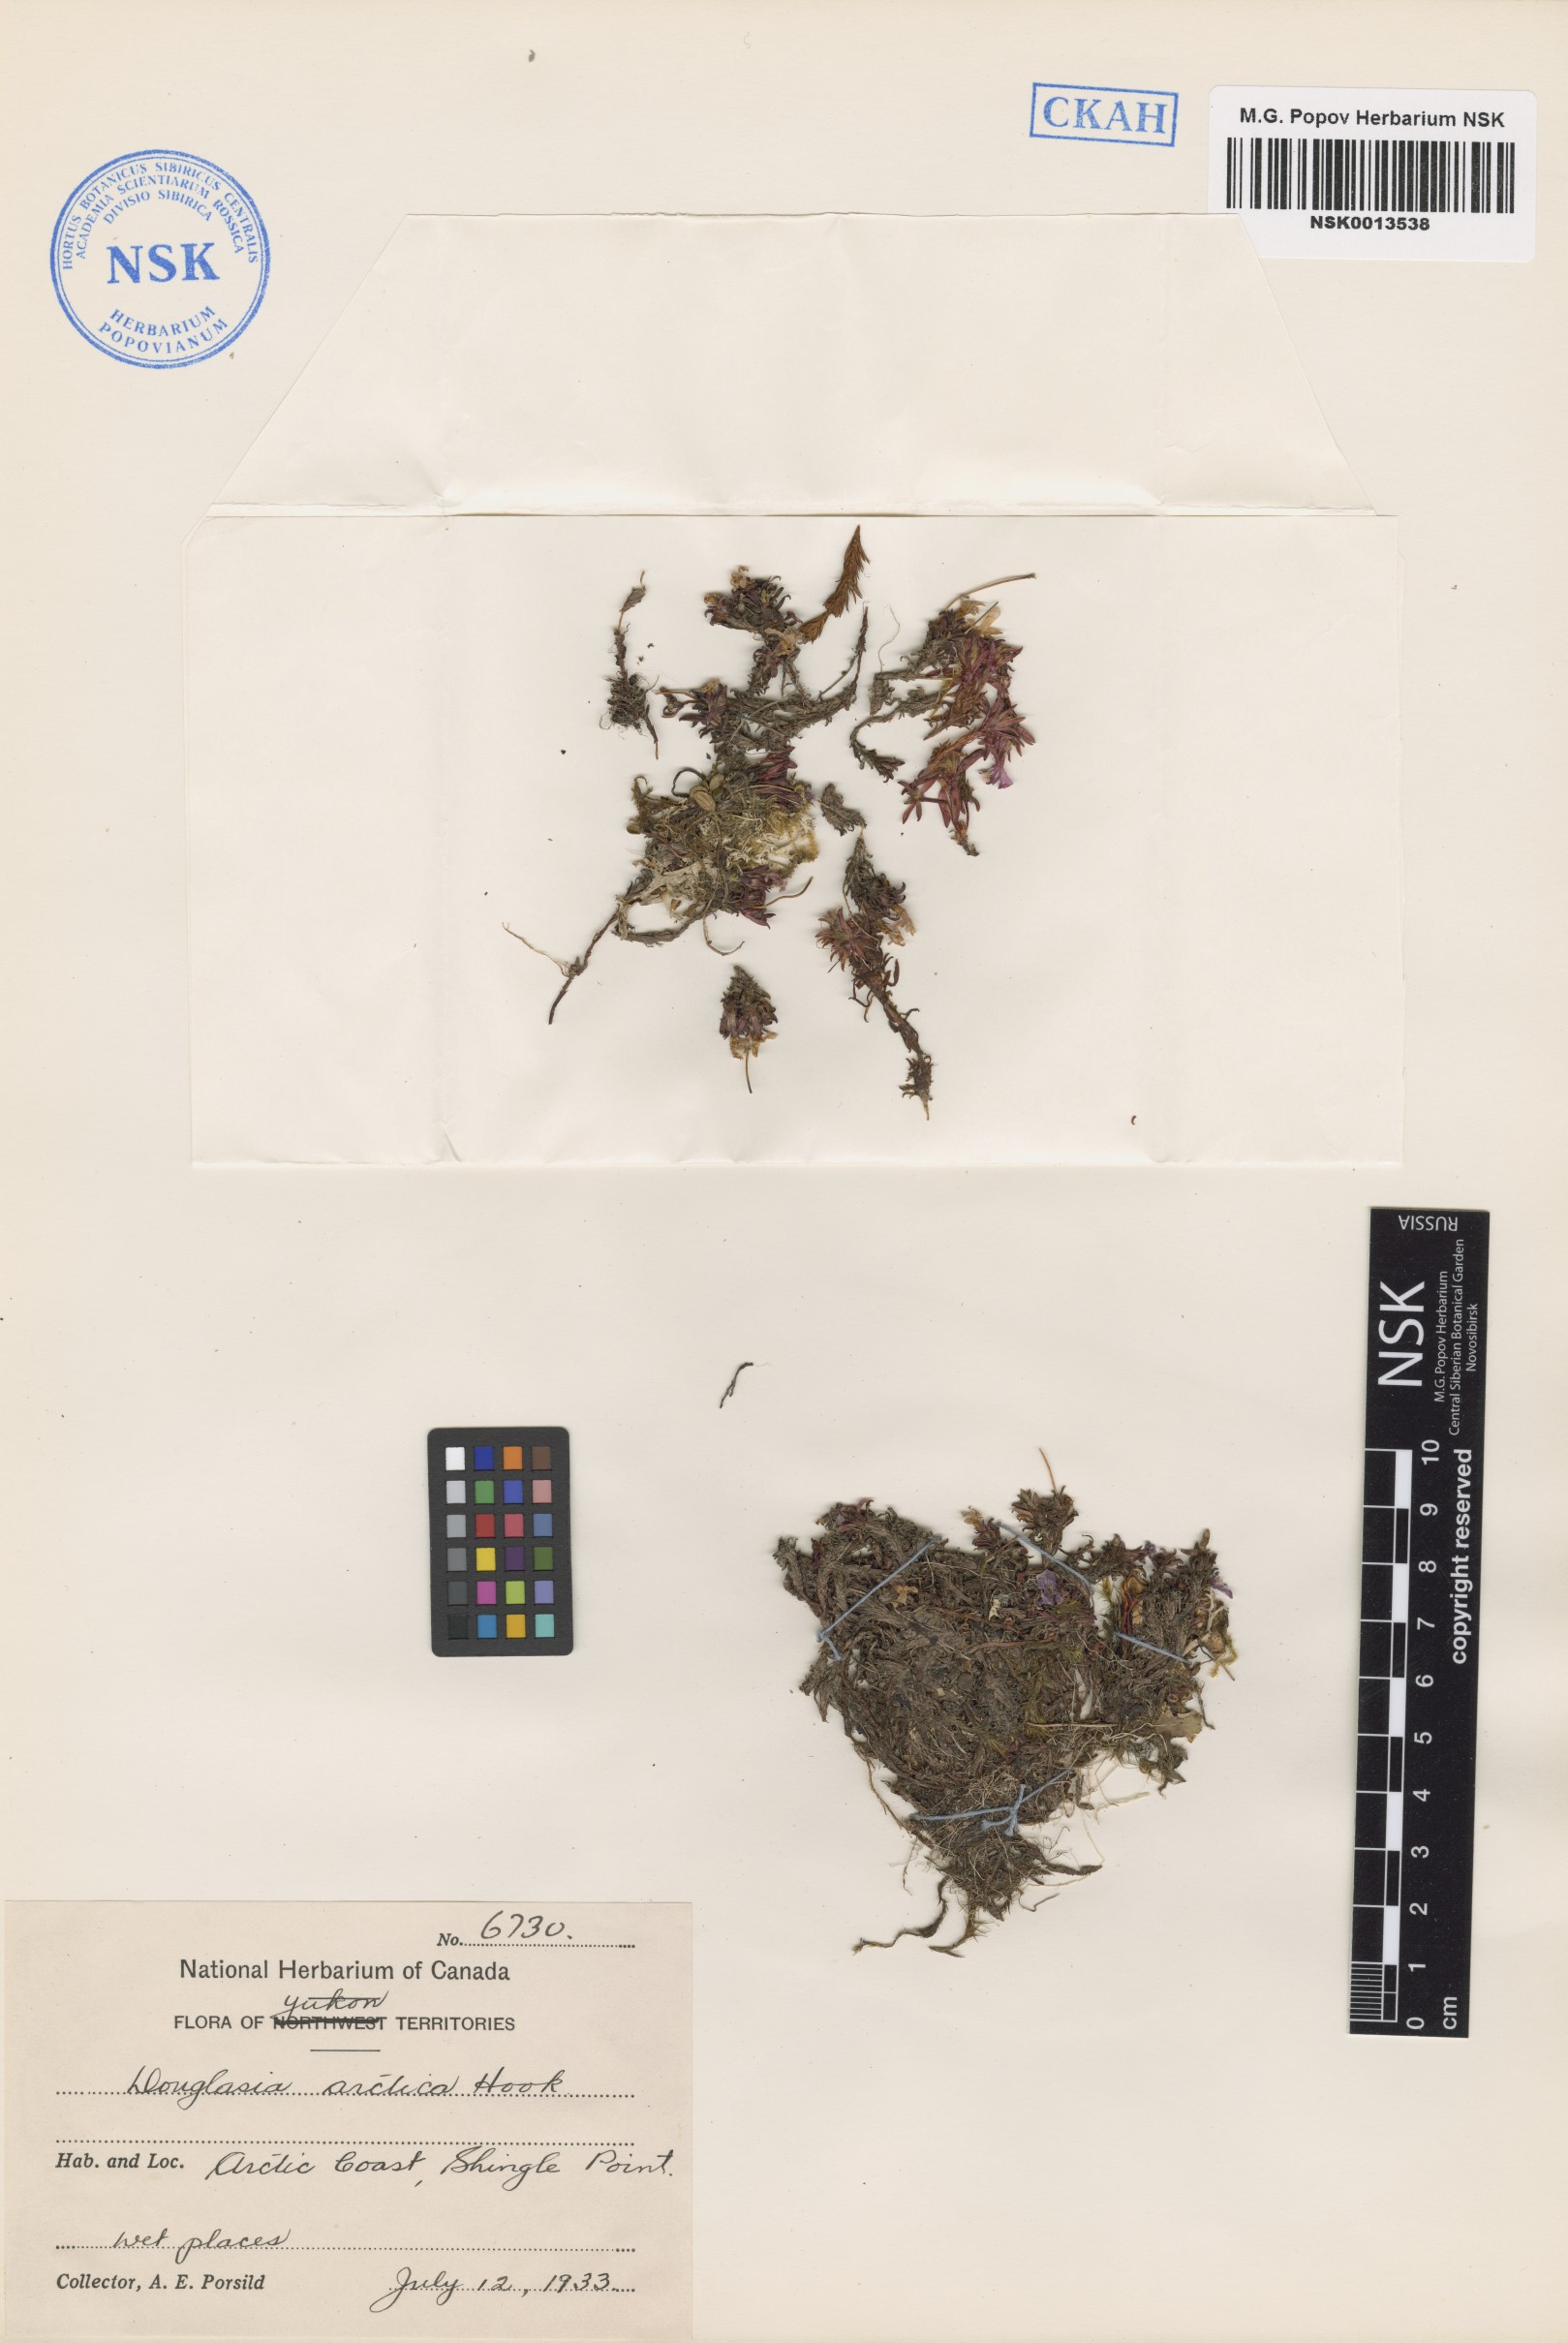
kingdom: Plantae
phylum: Tracheophyta
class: Magnoliopsida
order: Ericales
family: Primulaceae
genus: Androsace
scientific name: Androsace americana
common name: Mackenzie river dwarf-primrose
